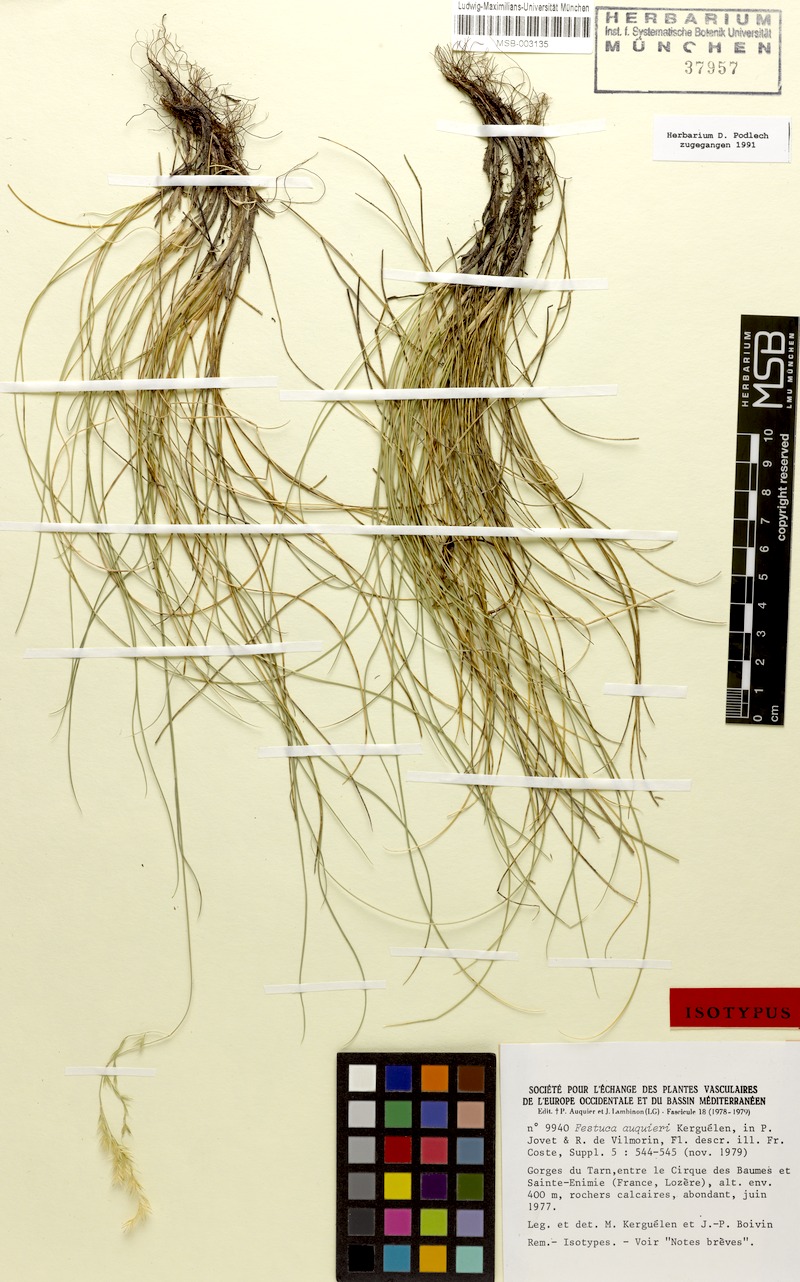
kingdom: Plantae
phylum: Tracheophyta
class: Liliopsida
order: Poales
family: Poaceae
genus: Festuca
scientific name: Festuca auquieri
